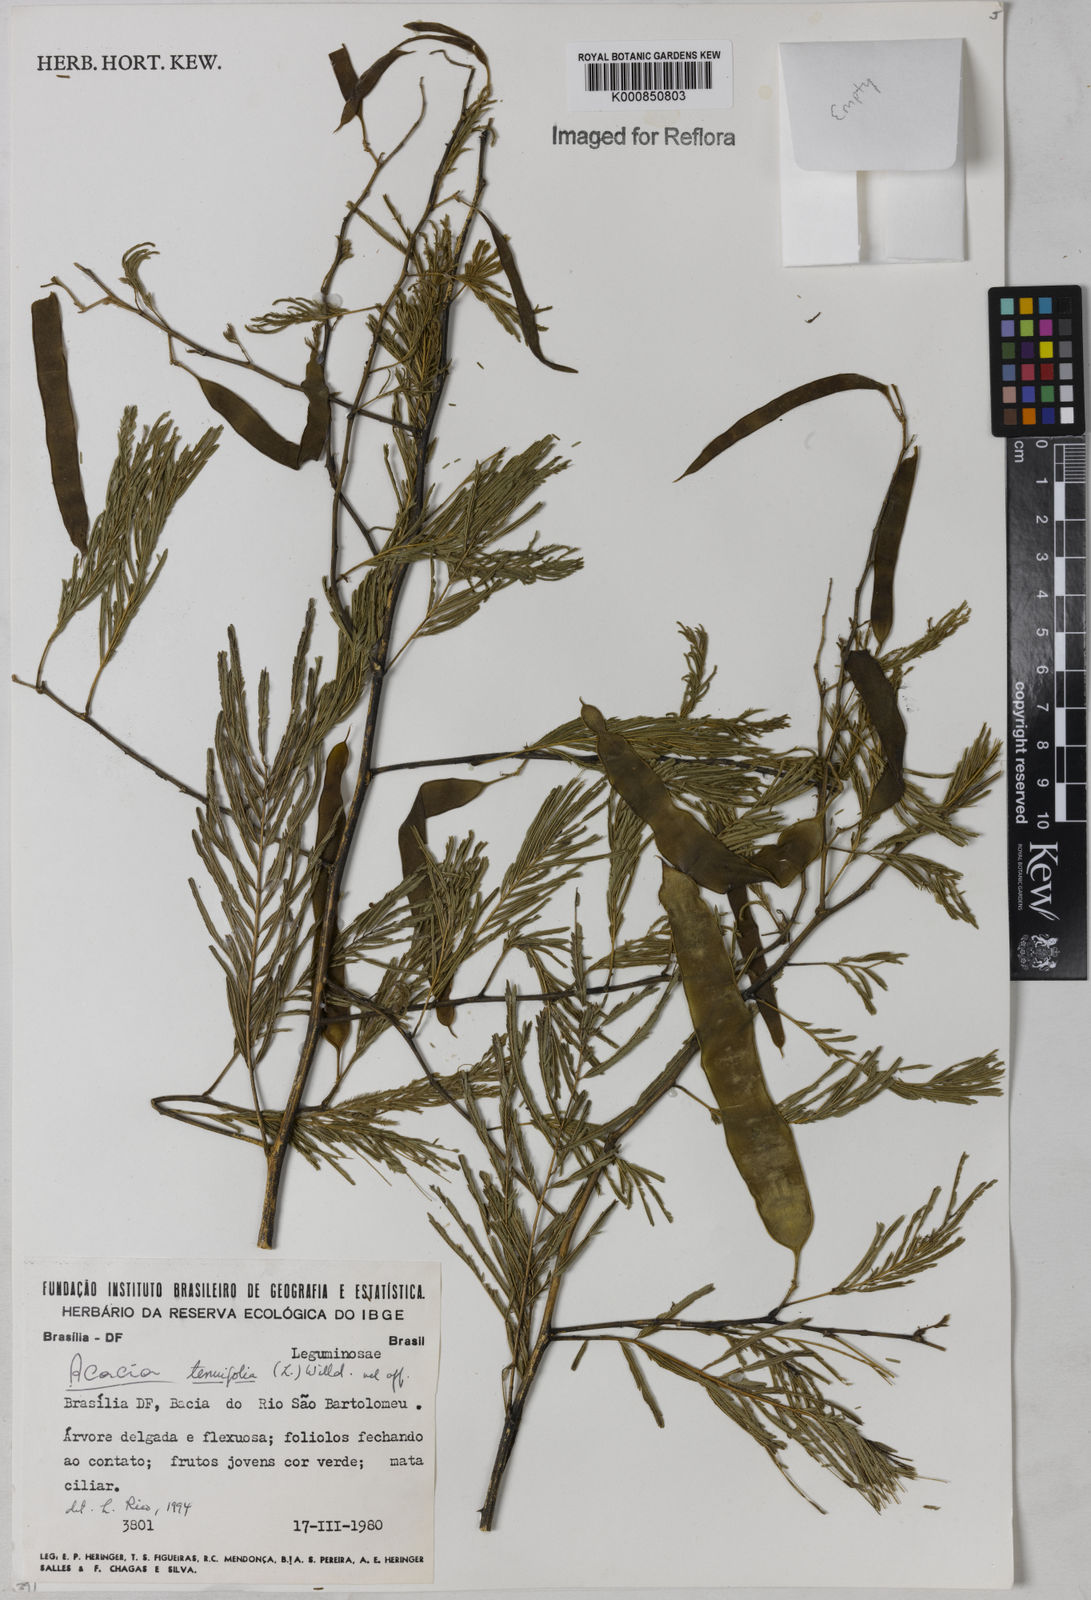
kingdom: Plantae
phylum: Tracheophyta
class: Magnoliopsida
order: Fabales
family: Fabaceae
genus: Senegalia
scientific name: Senegalia tenuifolia
